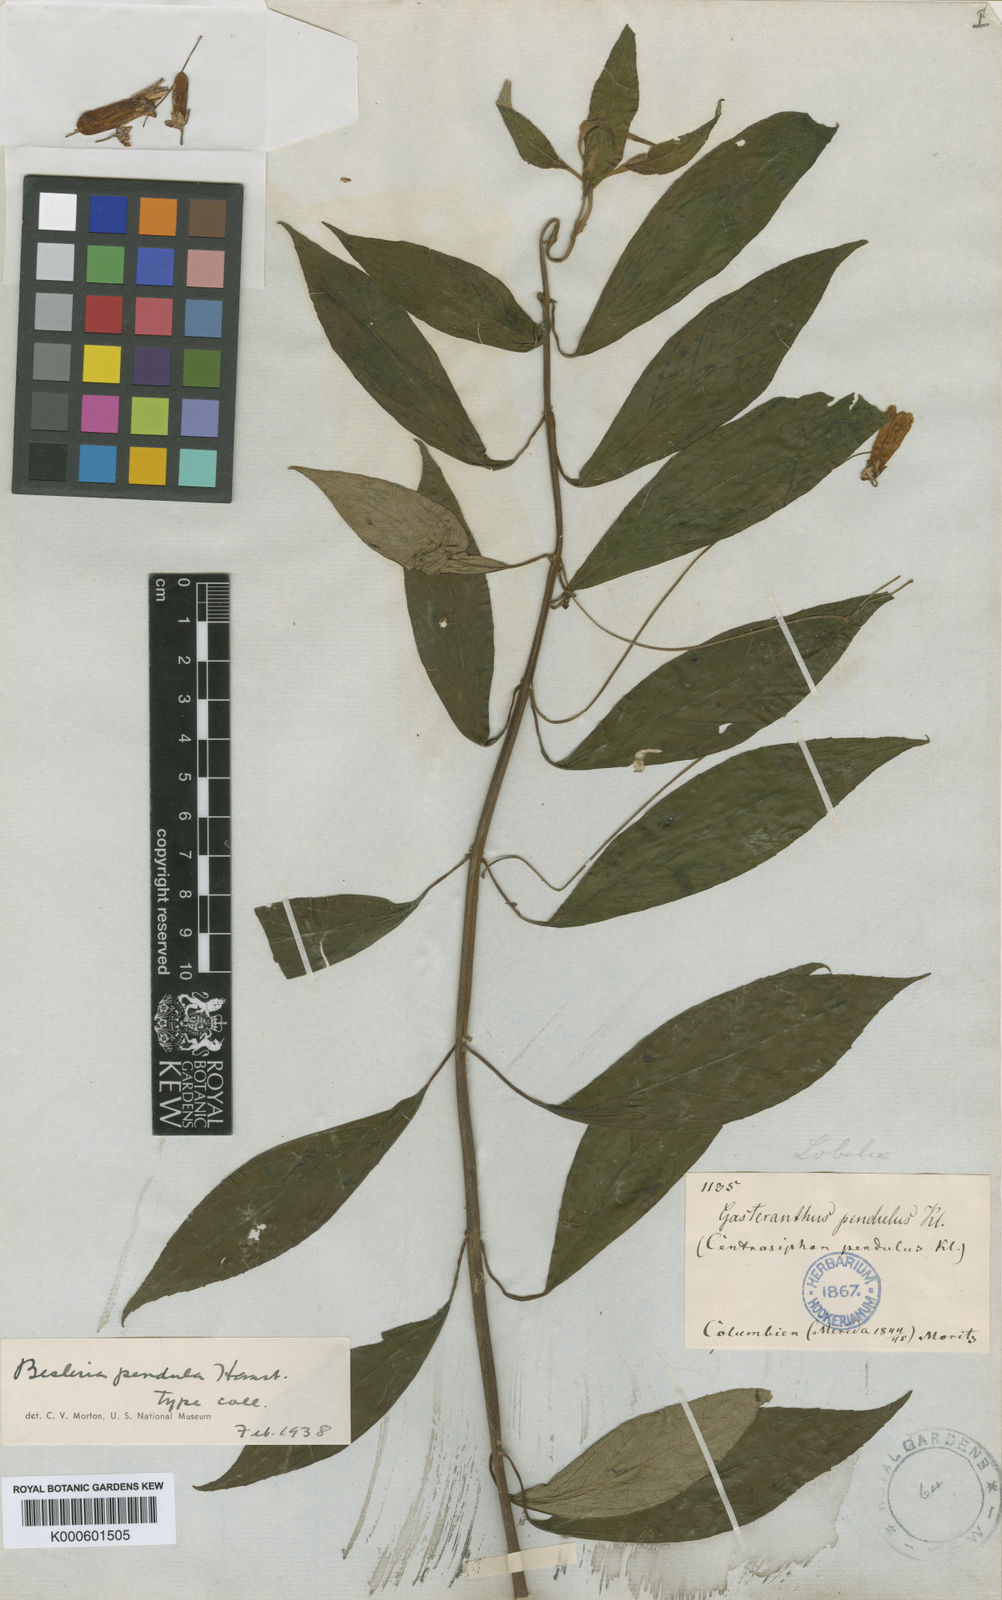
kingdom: Plantae
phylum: Tracheophyta
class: Magnoliopsida
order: Lamiales
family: Gesneriaceae
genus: Besleria
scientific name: Besleria pendula
